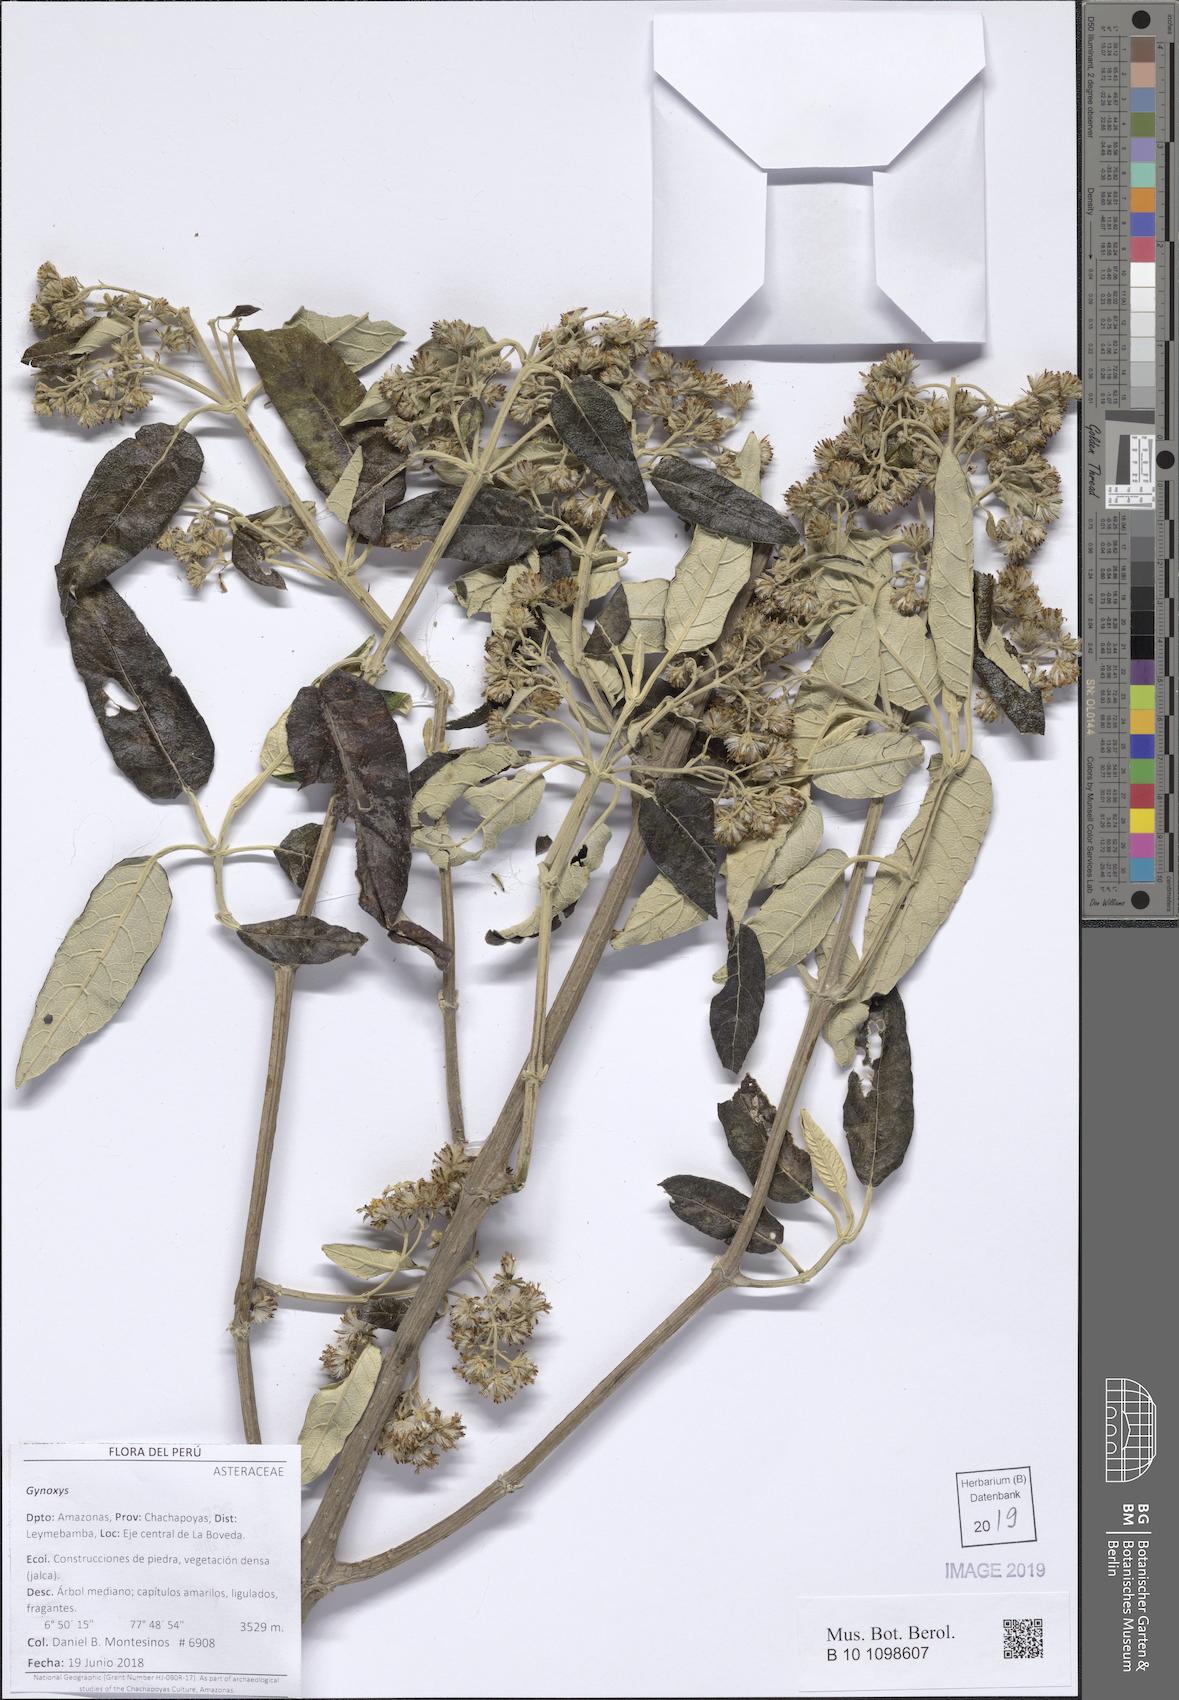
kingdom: Plantae
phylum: Tracheophyta
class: Magnoliopsida
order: Asterales
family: Asteraceae
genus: Gynoxys
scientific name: Gynoxys
